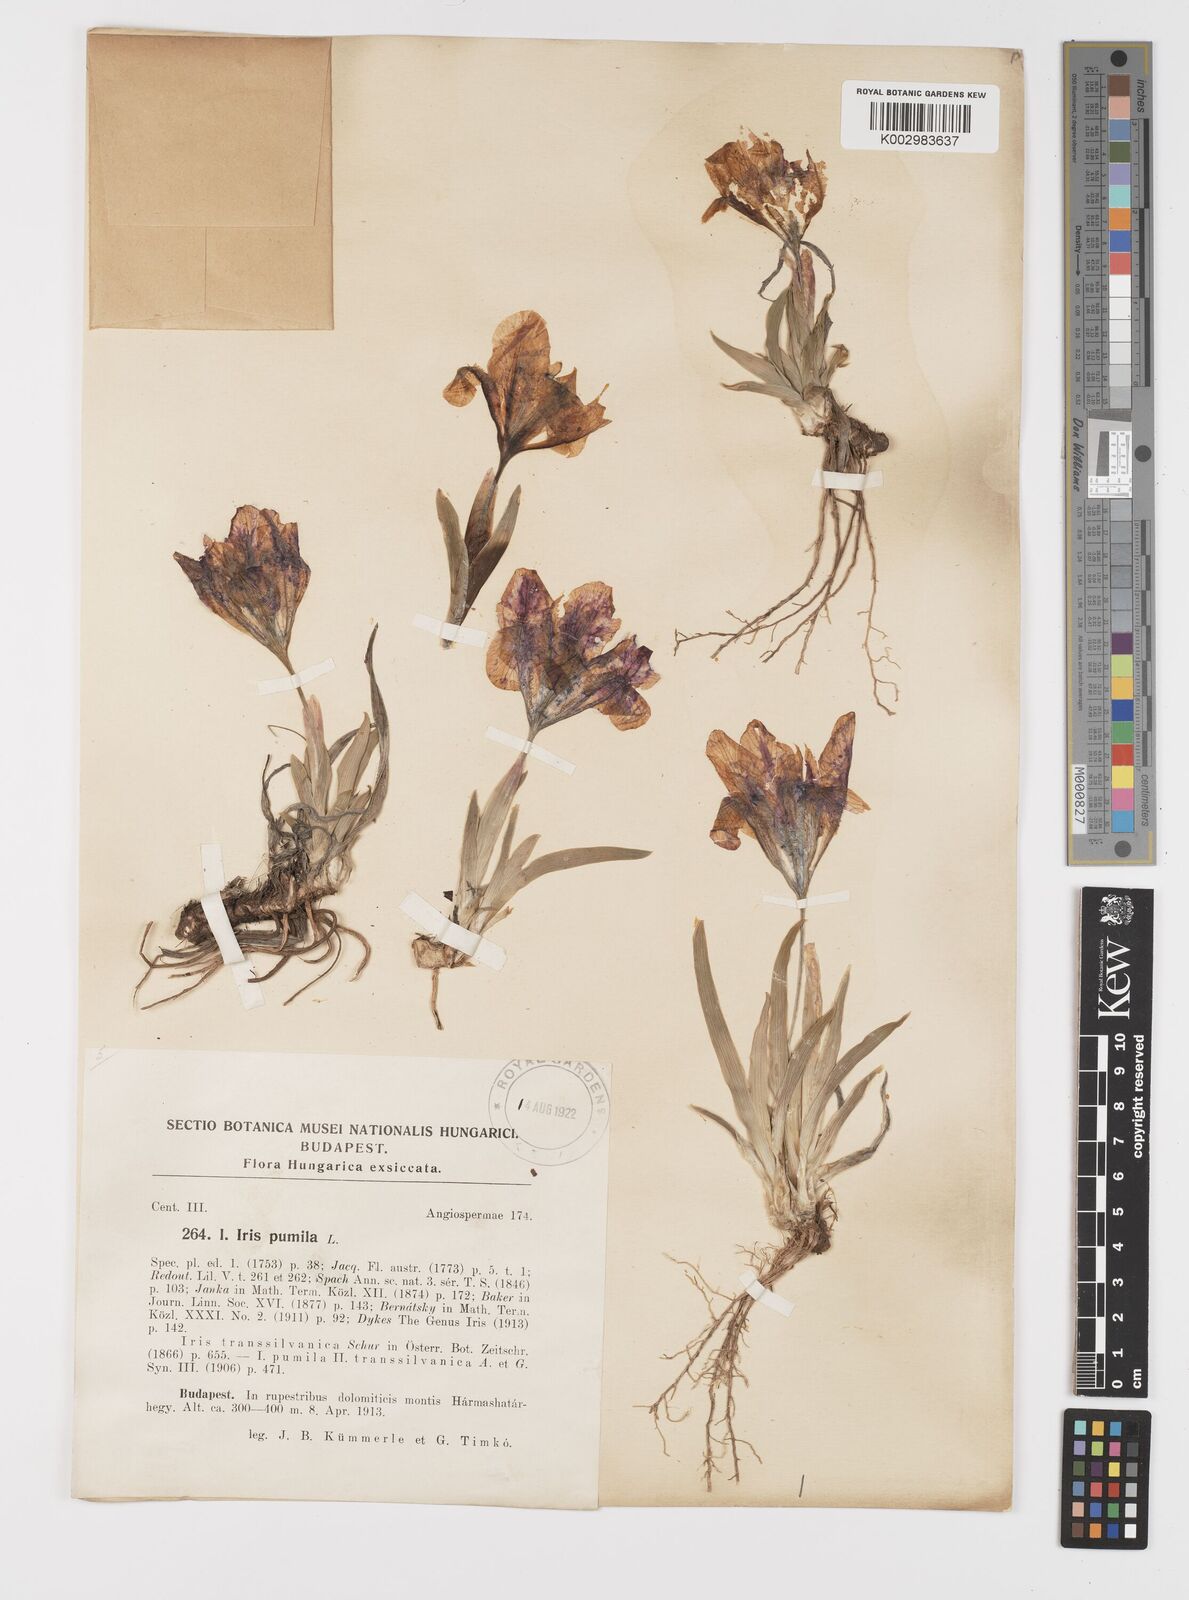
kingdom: Plantae
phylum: Tracheophyta
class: Liliopsida
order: Asparagales
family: Iridaceae
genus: Iris
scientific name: Iris pumila
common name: Dwarf iris
